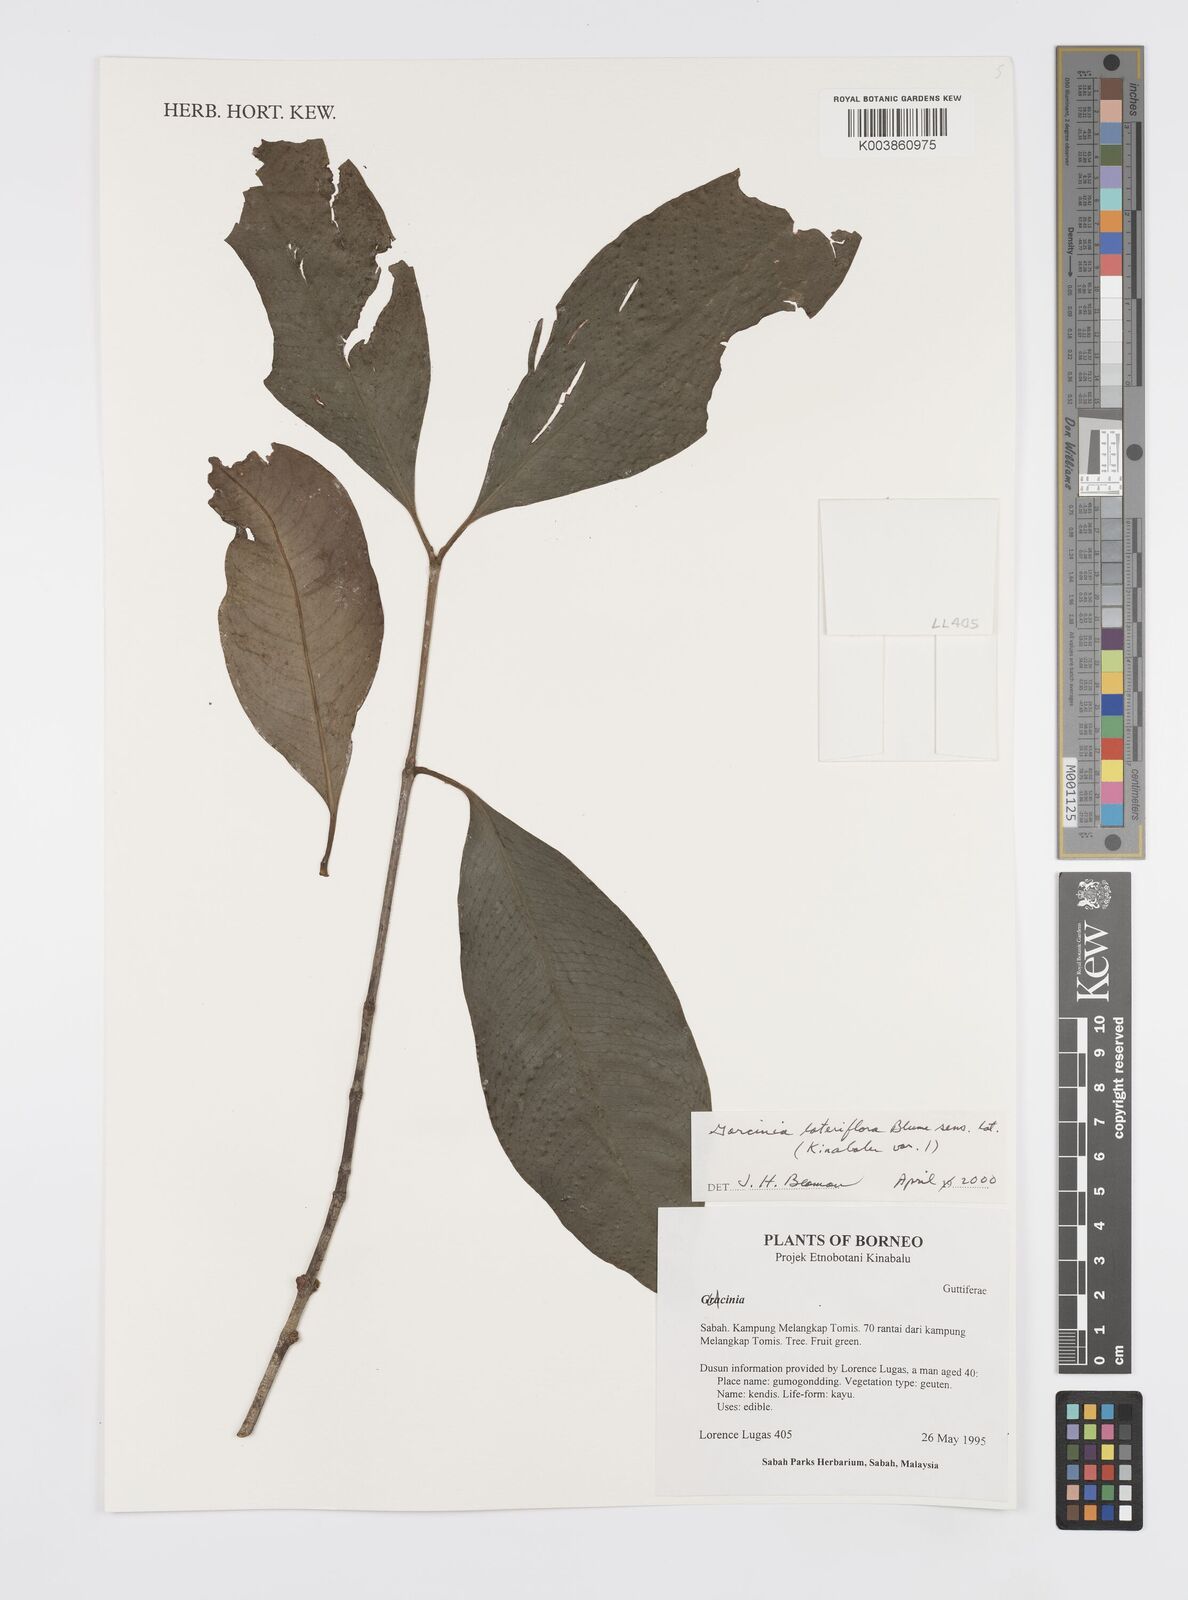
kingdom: Plantae
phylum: Tracheophyta
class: Magnoliopsida
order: Malpighiales
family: Clusiaceae
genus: Garcinia
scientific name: Garcinia lateriflora
